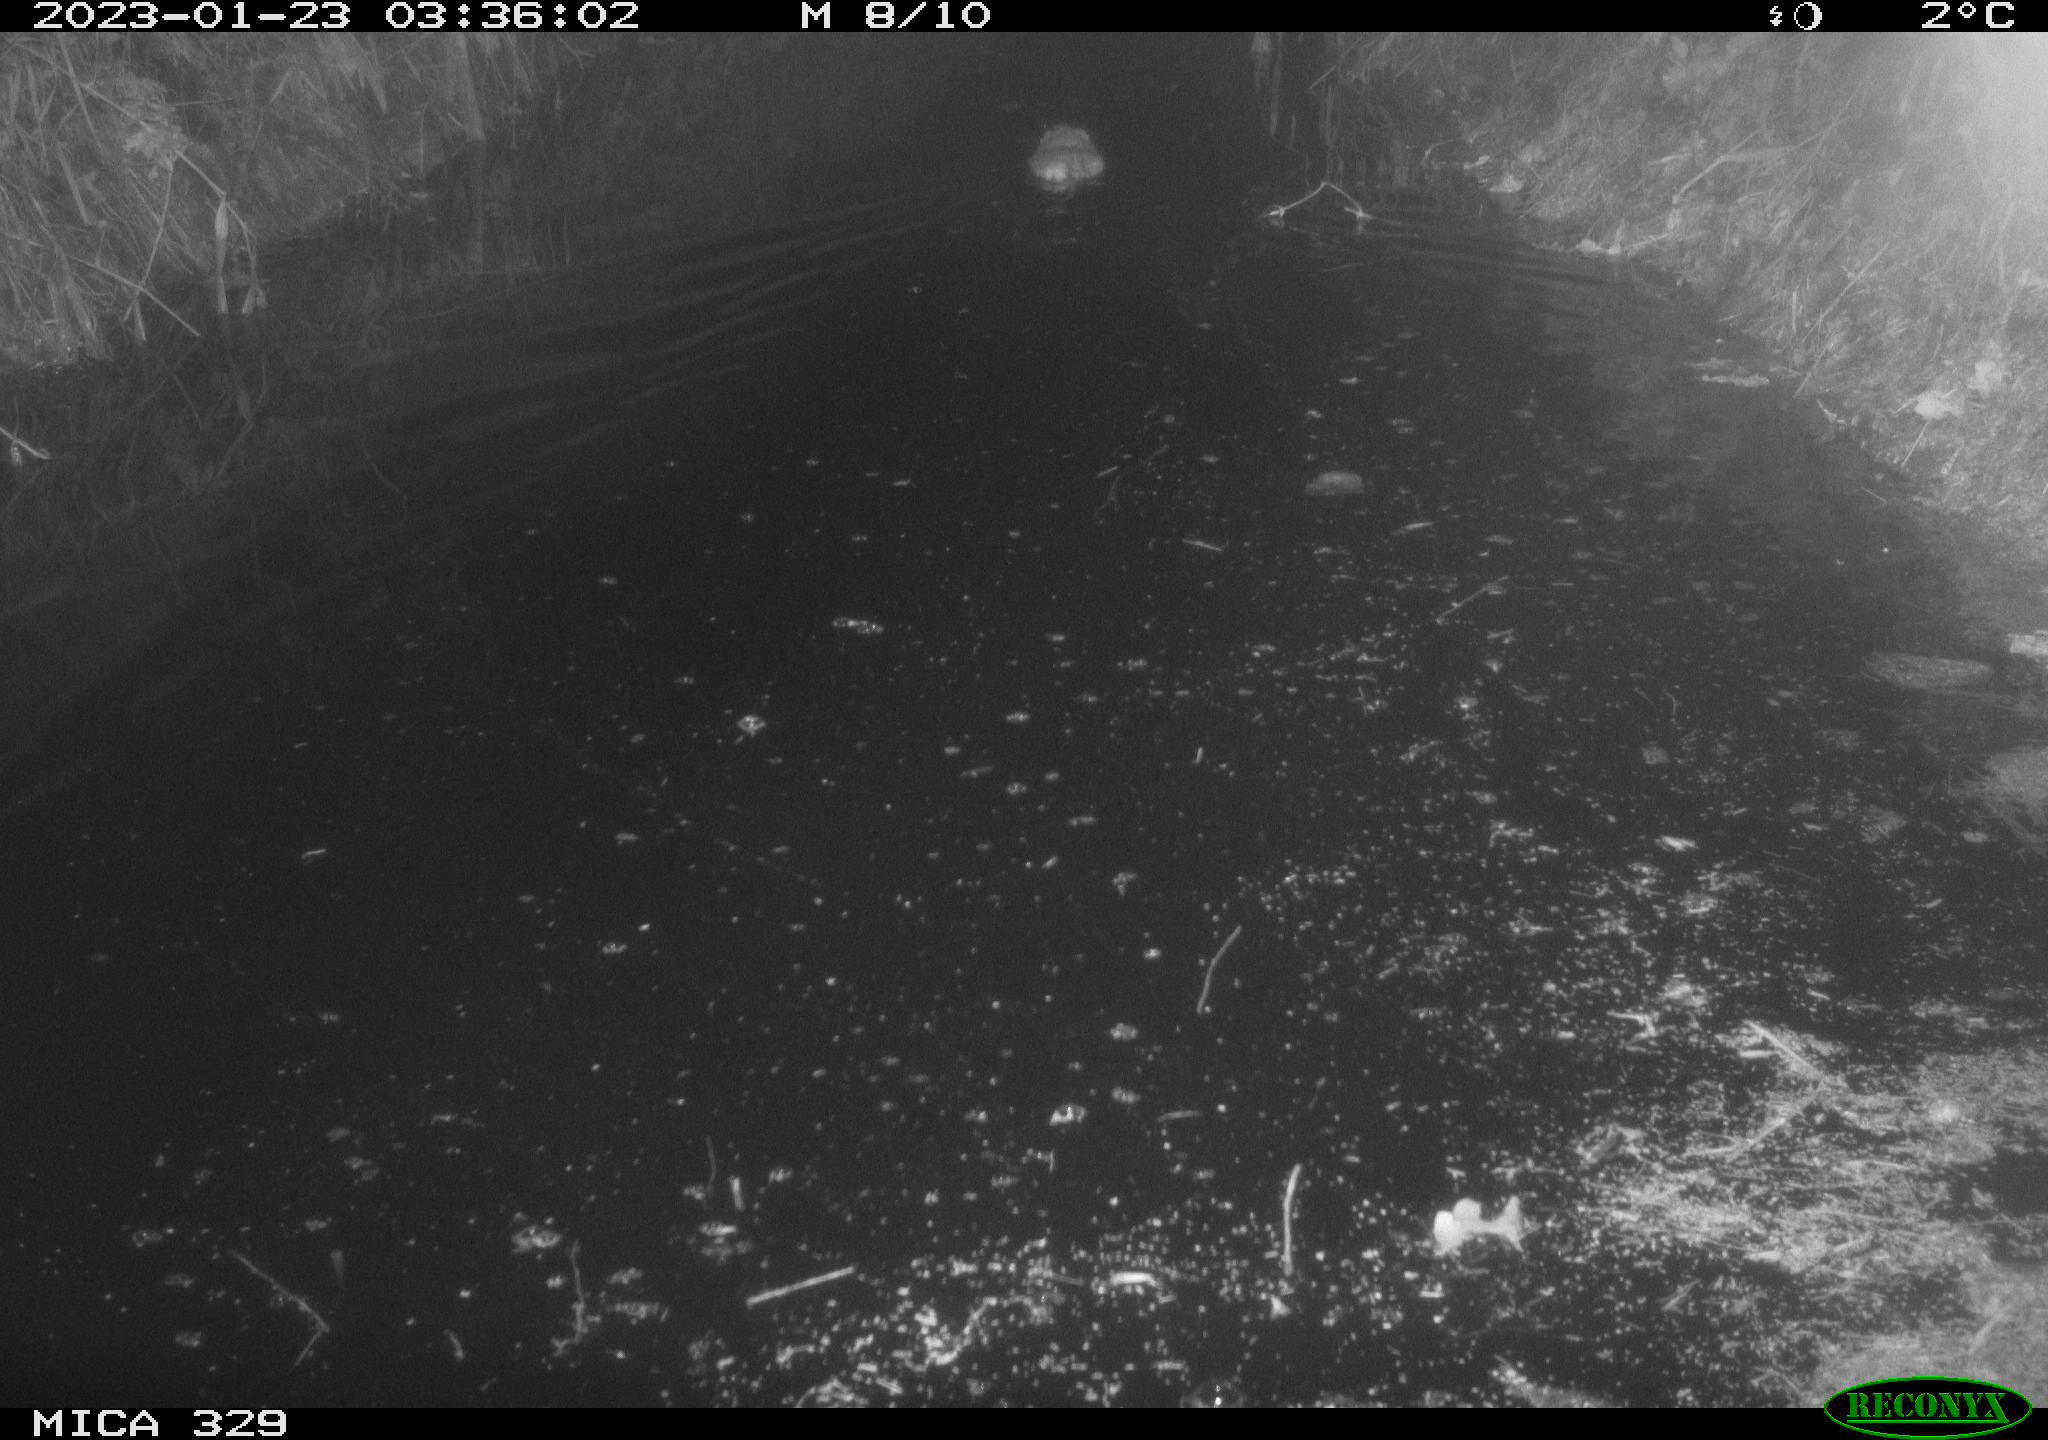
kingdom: Animalia
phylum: Chordata
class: Mammalia
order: Rodentia
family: Cricetidae
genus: Ondatra
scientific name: Ondatra zibethicus
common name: Muskrat
